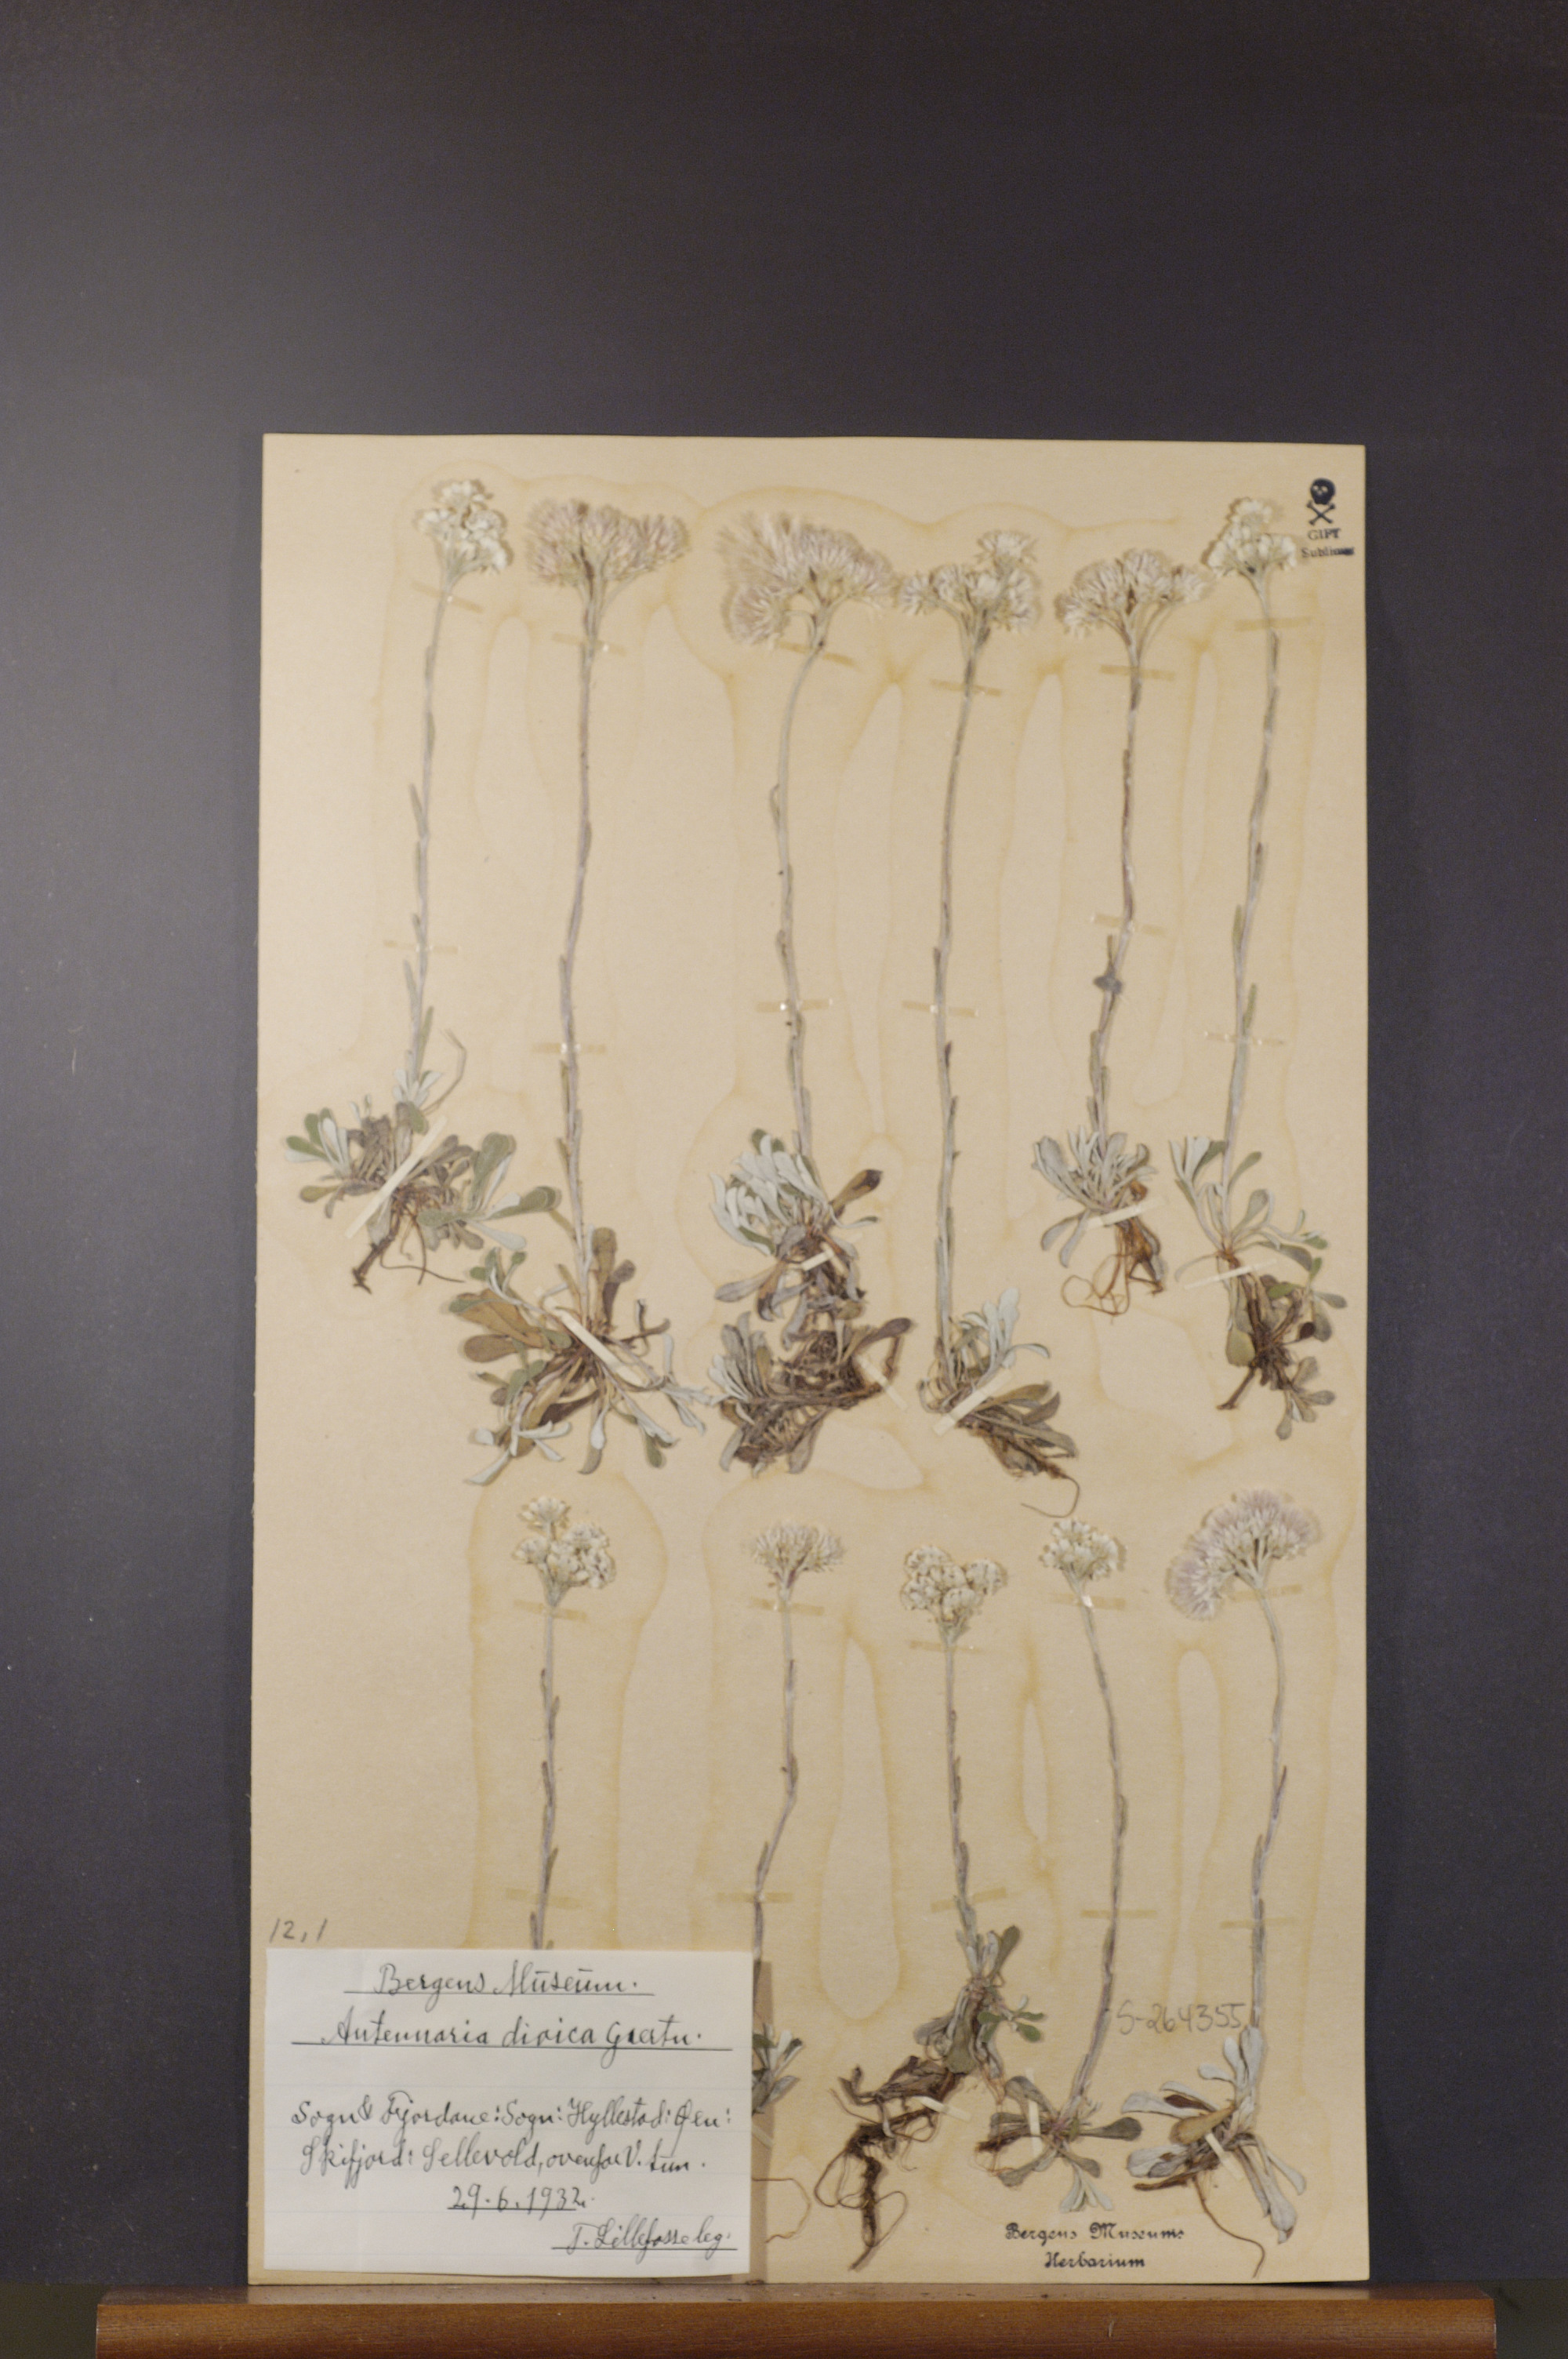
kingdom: Plantae
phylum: Tracheophyta
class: Magnoliopsida
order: Asterales
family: Asteraceae
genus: Antennaria
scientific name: Antennaria dioica
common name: Mountain everlasting
